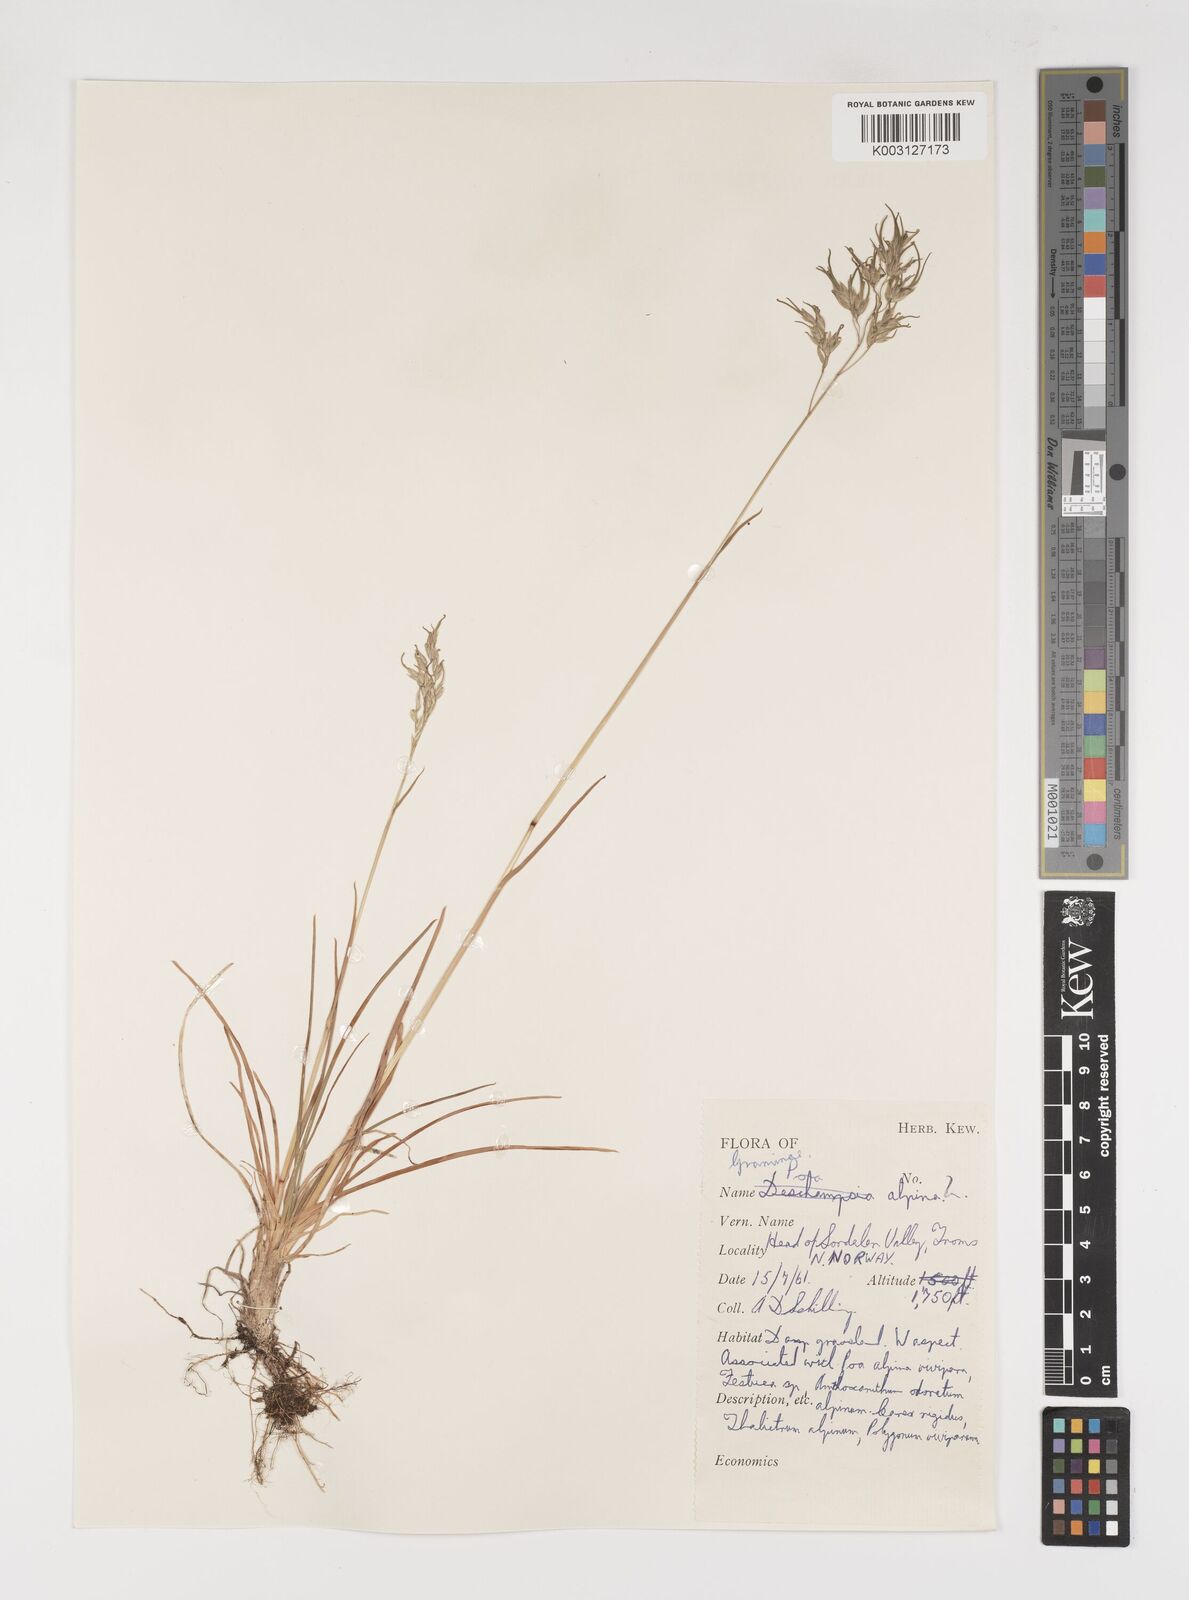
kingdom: Plantae
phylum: Tracheophyta
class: Liliopsida
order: Poales
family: Poaceae
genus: Poa
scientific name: Poa alpina
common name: Alpine bluegrass
